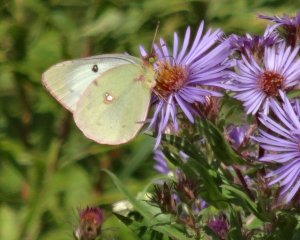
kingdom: Animalia
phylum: Arthropoda
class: Insecta
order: Lepidoptera
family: Pieridae
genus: Colias
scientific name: Colias philodice
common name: Clouded Sulphur
